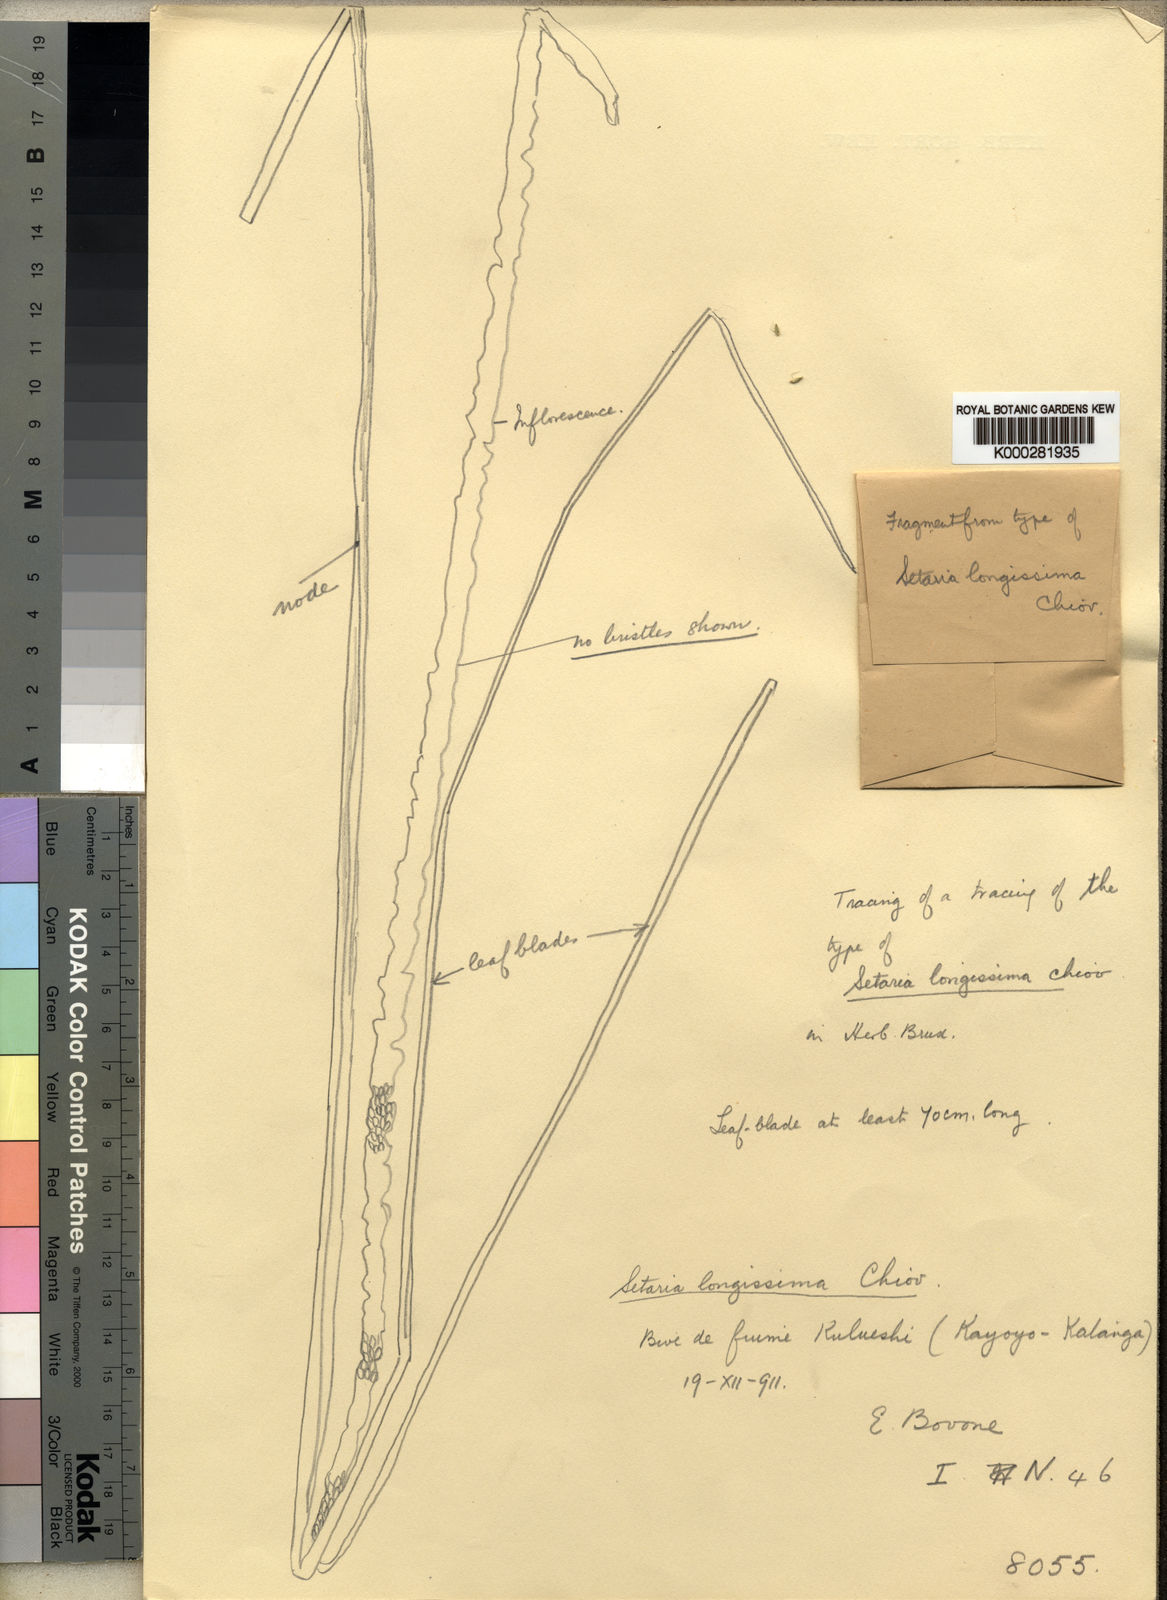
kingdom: Plantae
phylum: Tracheophyta
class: Liliopsida
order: Poales
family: Poaceae
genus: Setaria
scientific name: Setaria incrassata
